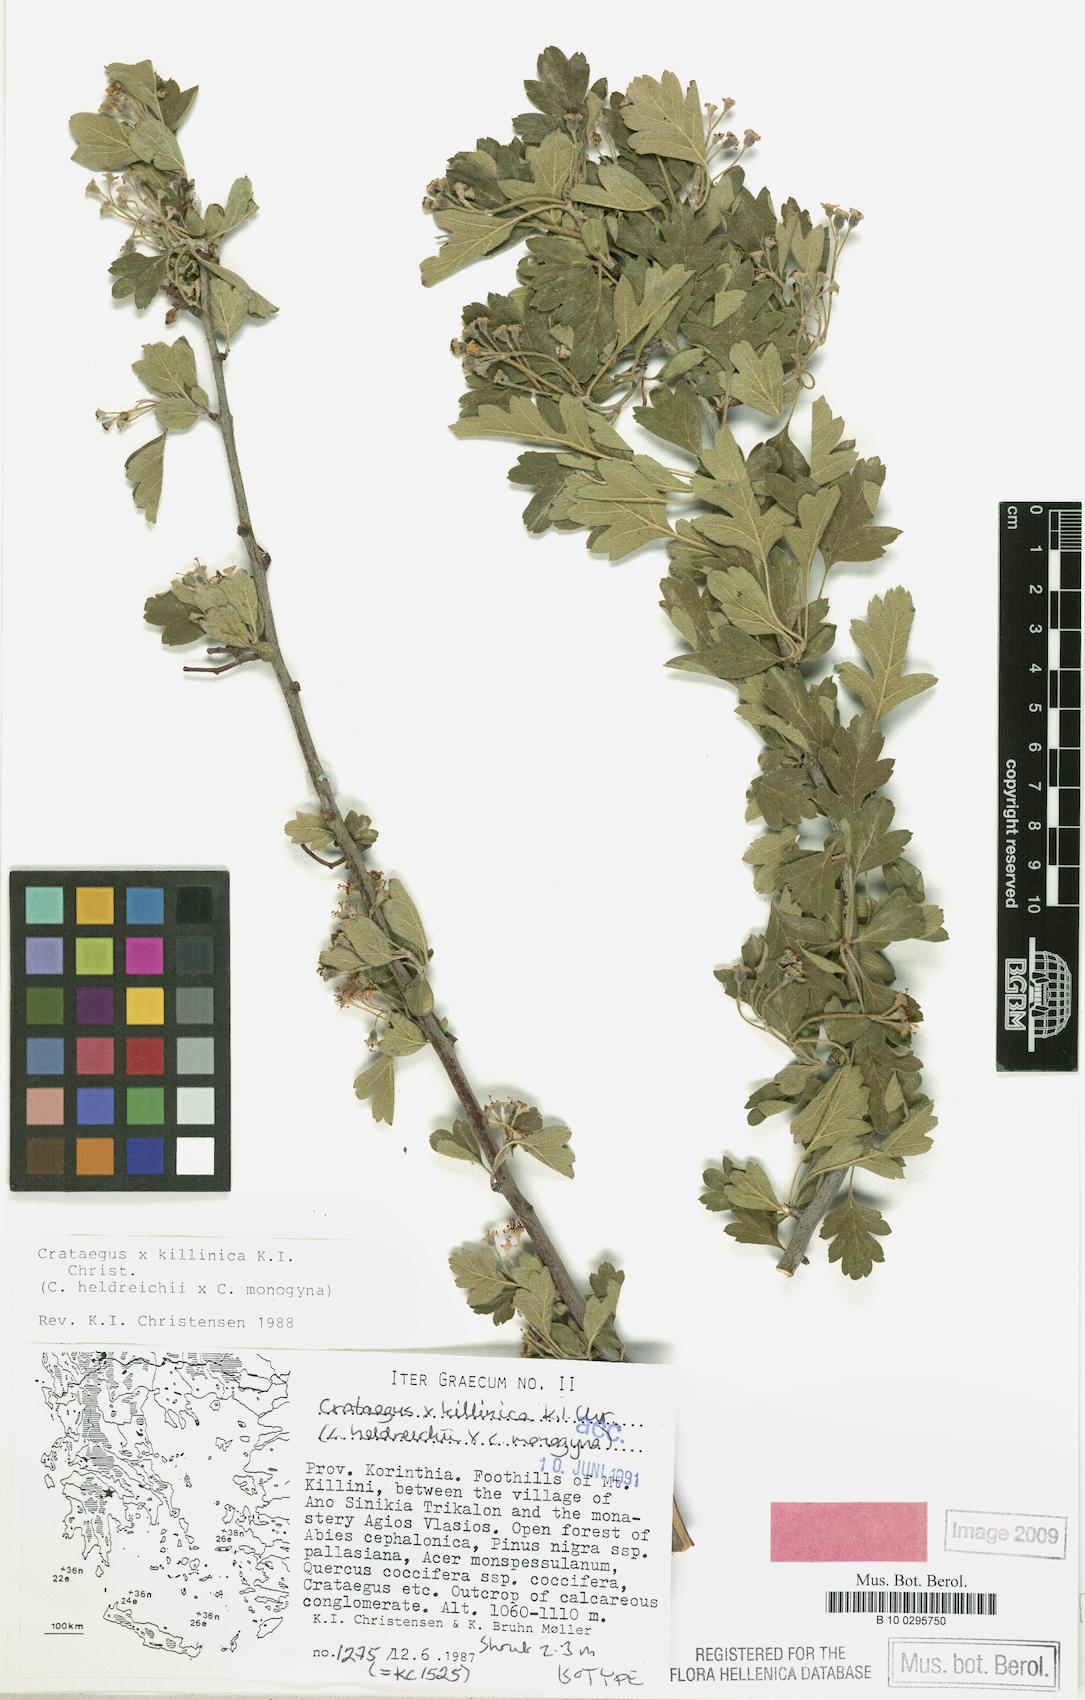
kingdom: Plantae
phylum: Tracheophyta
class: Magnoliopsida
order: Rosales
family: Rosaceae
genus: Crataegus
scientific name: Crataegus killinica
